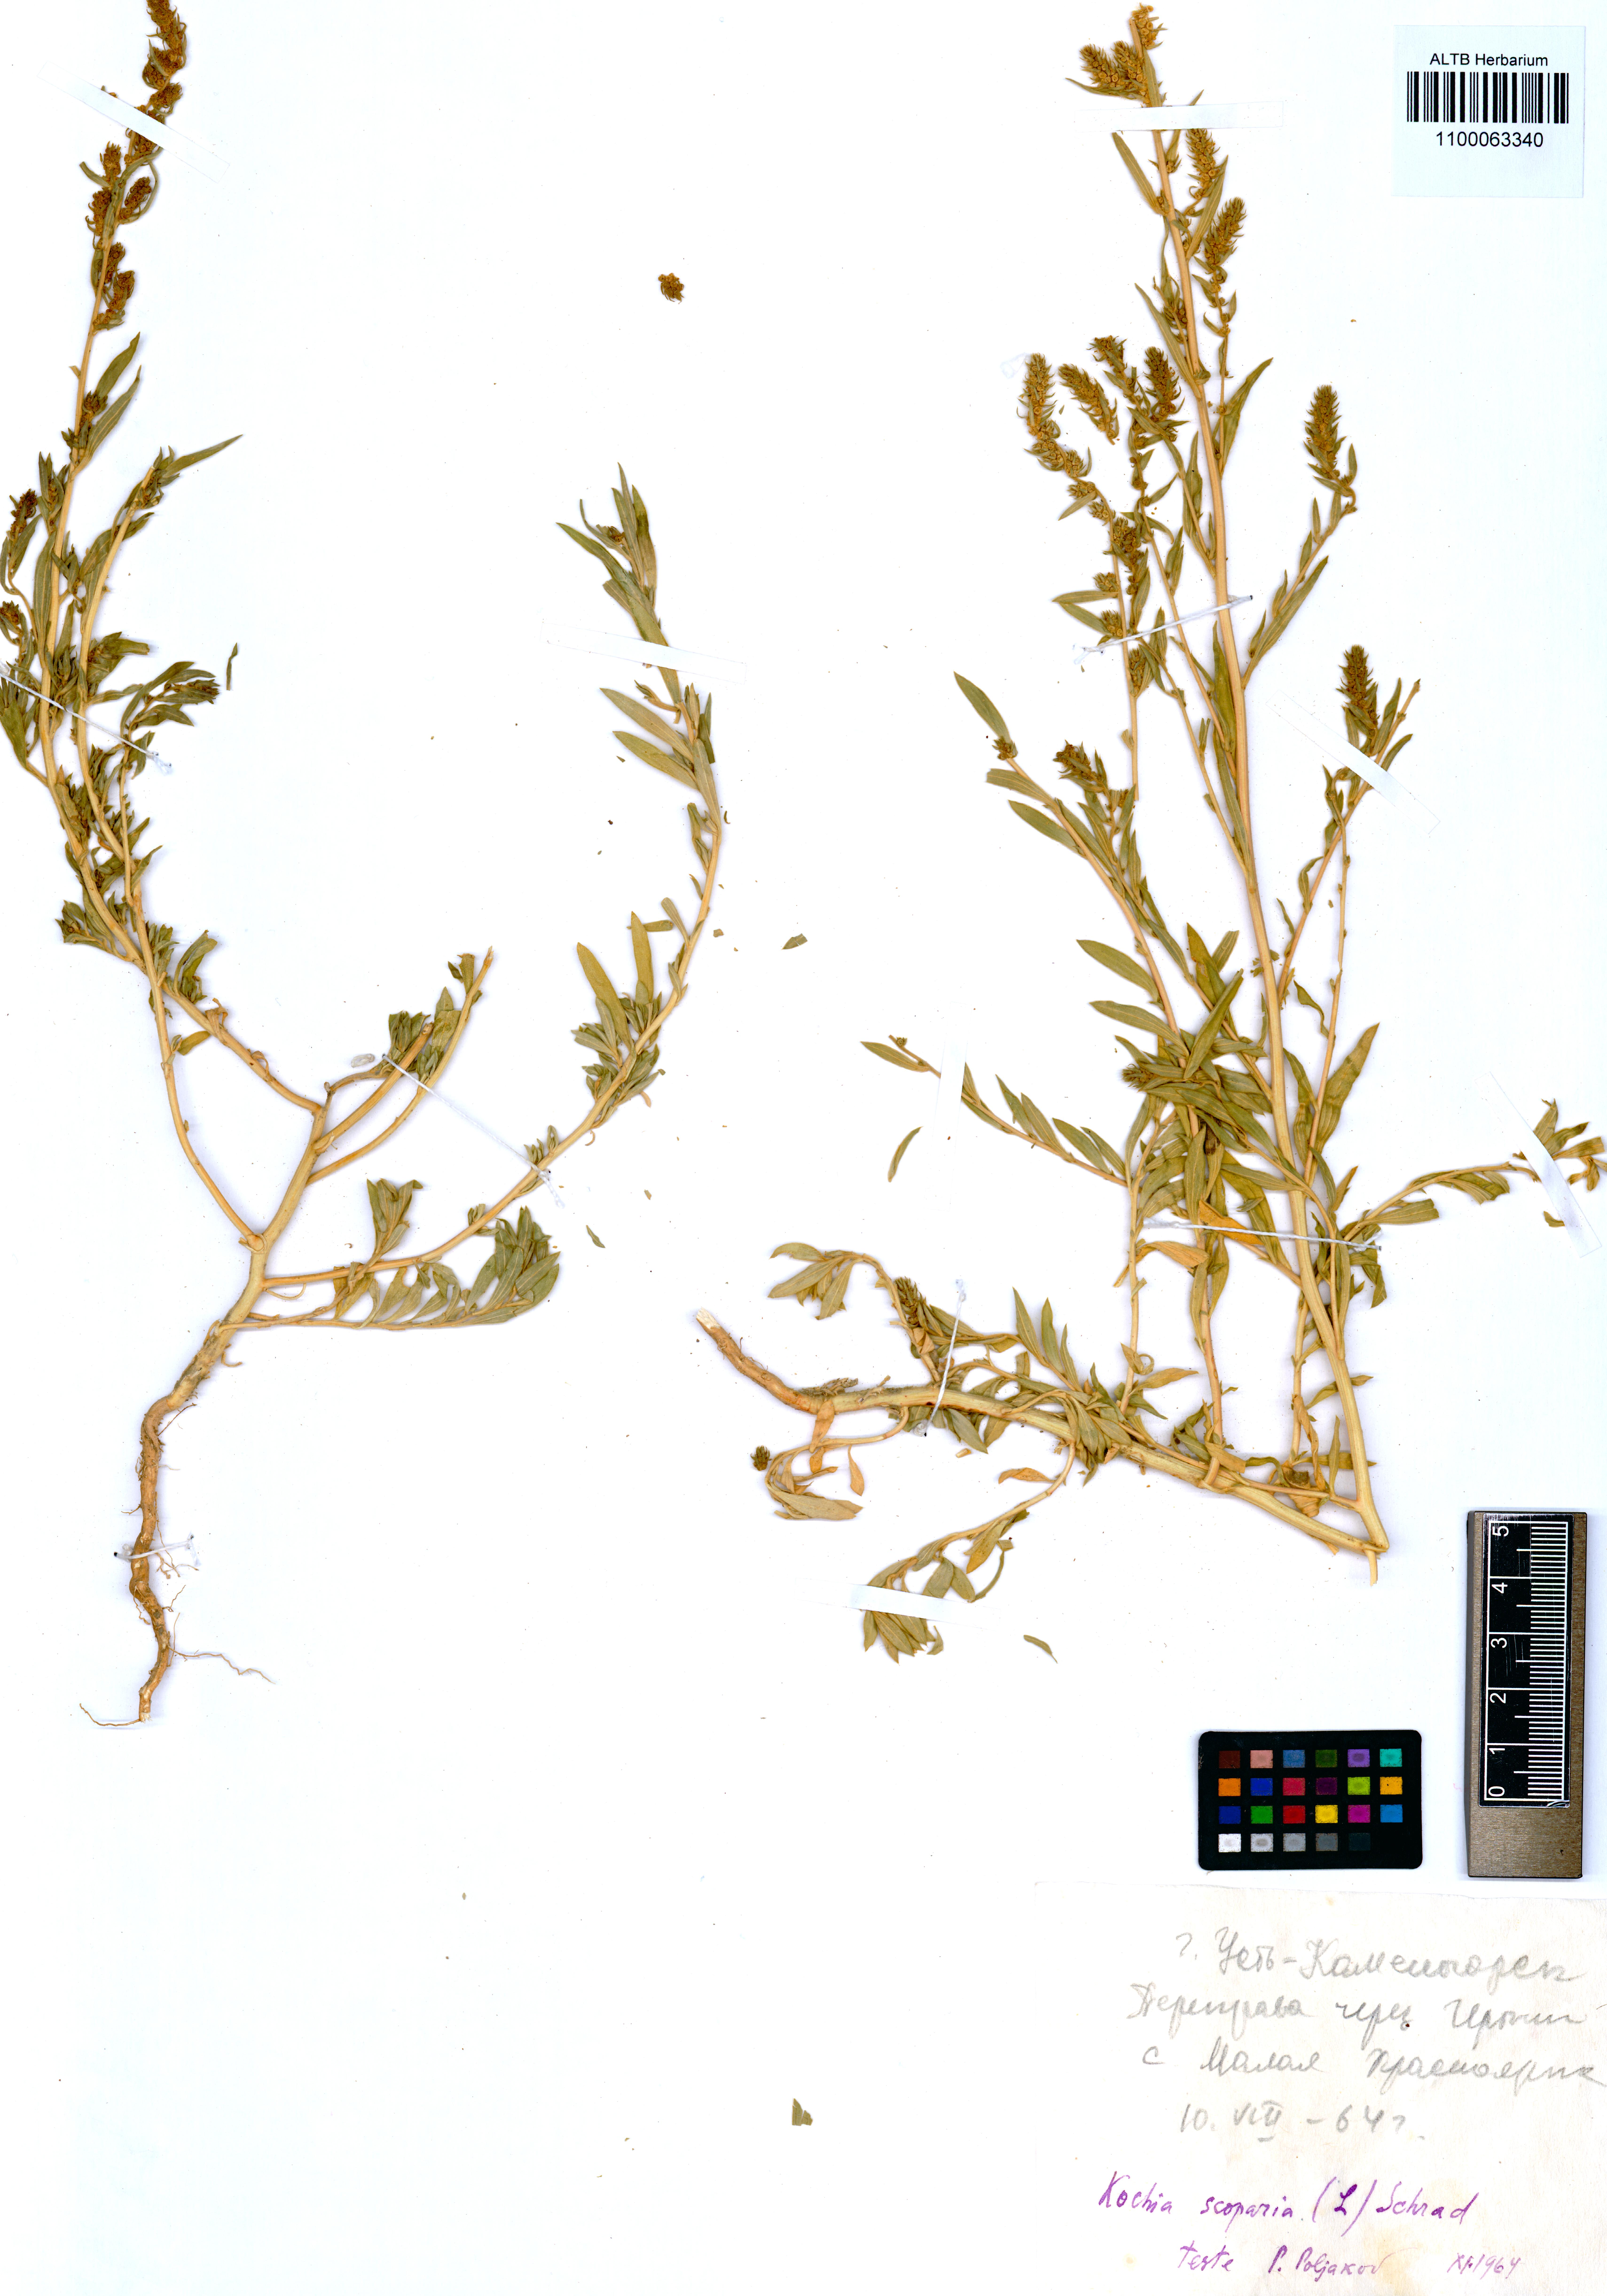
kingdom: Plantae
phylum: Tracheophyta
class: Magnoliopsida
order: Caryophyllales
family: Amaranthaceae
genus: Bassia
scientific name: Bassia scoparia
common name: Belvedere
